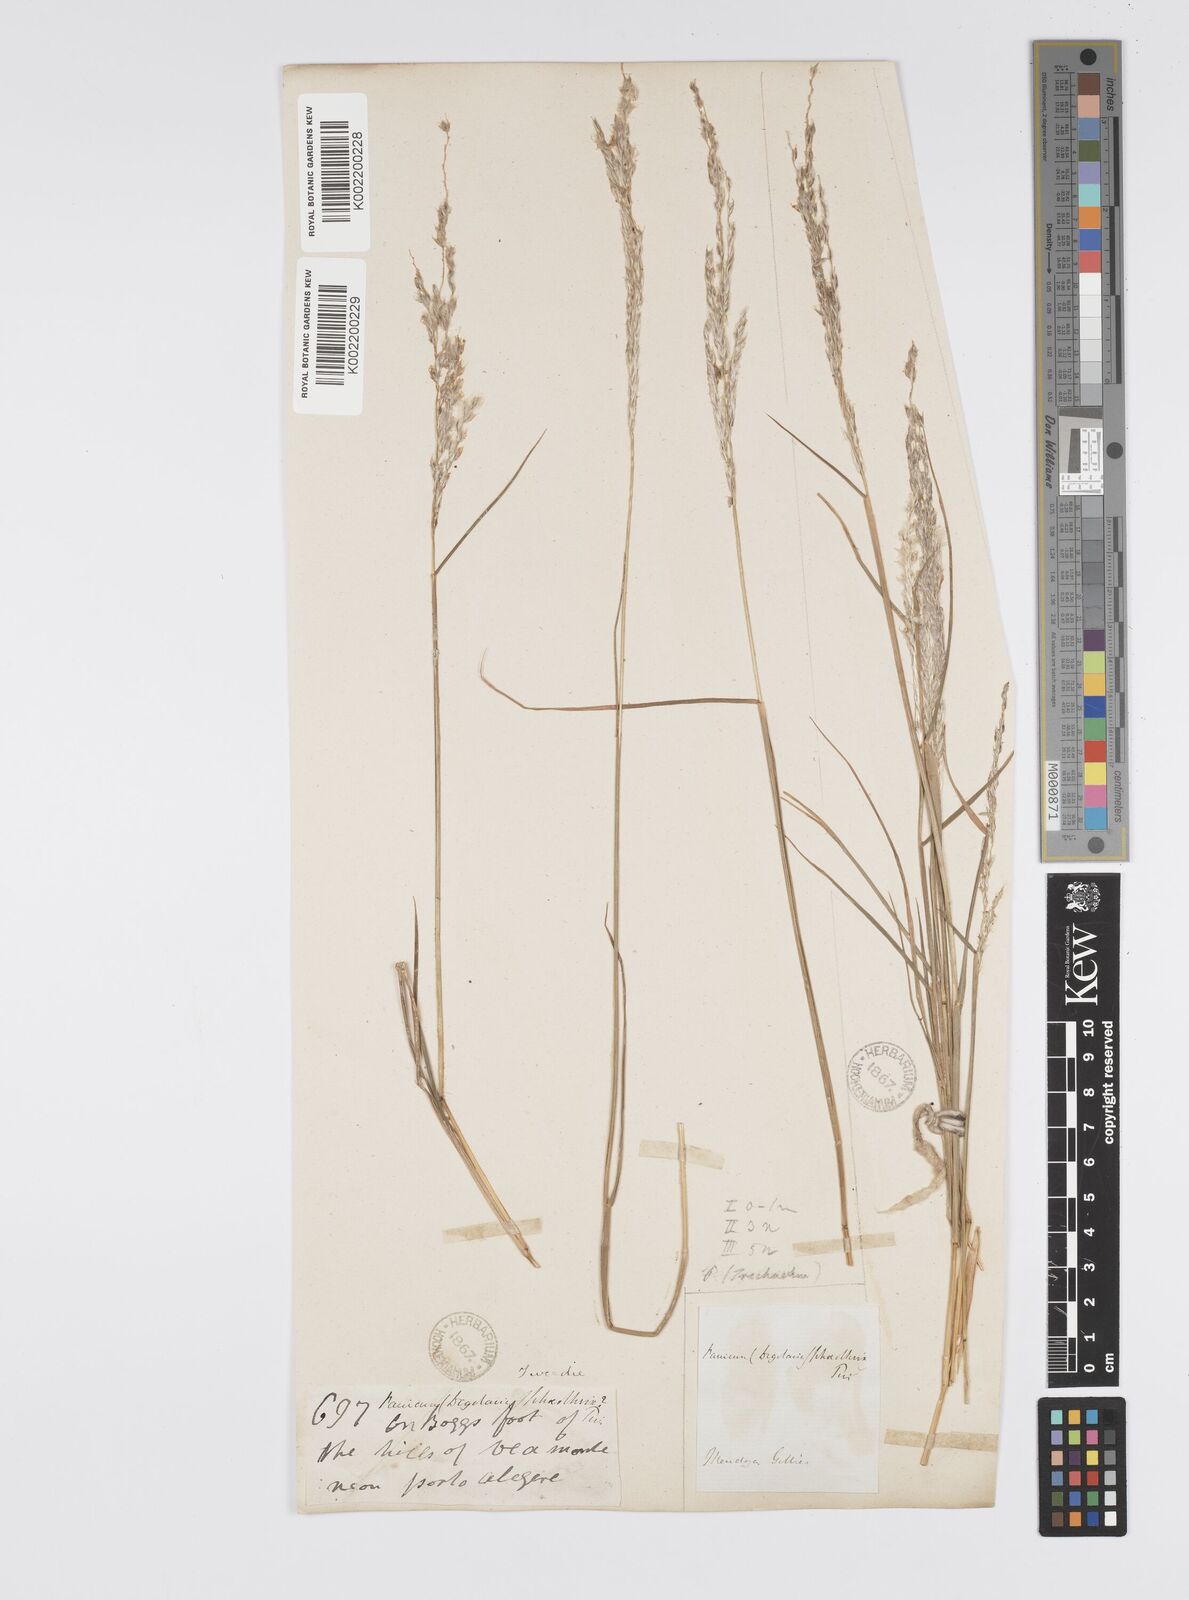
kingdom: Plantae
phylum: Tracheophyta
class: Liliopsida
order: Poales
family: Poaceae
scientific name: Poaceae
